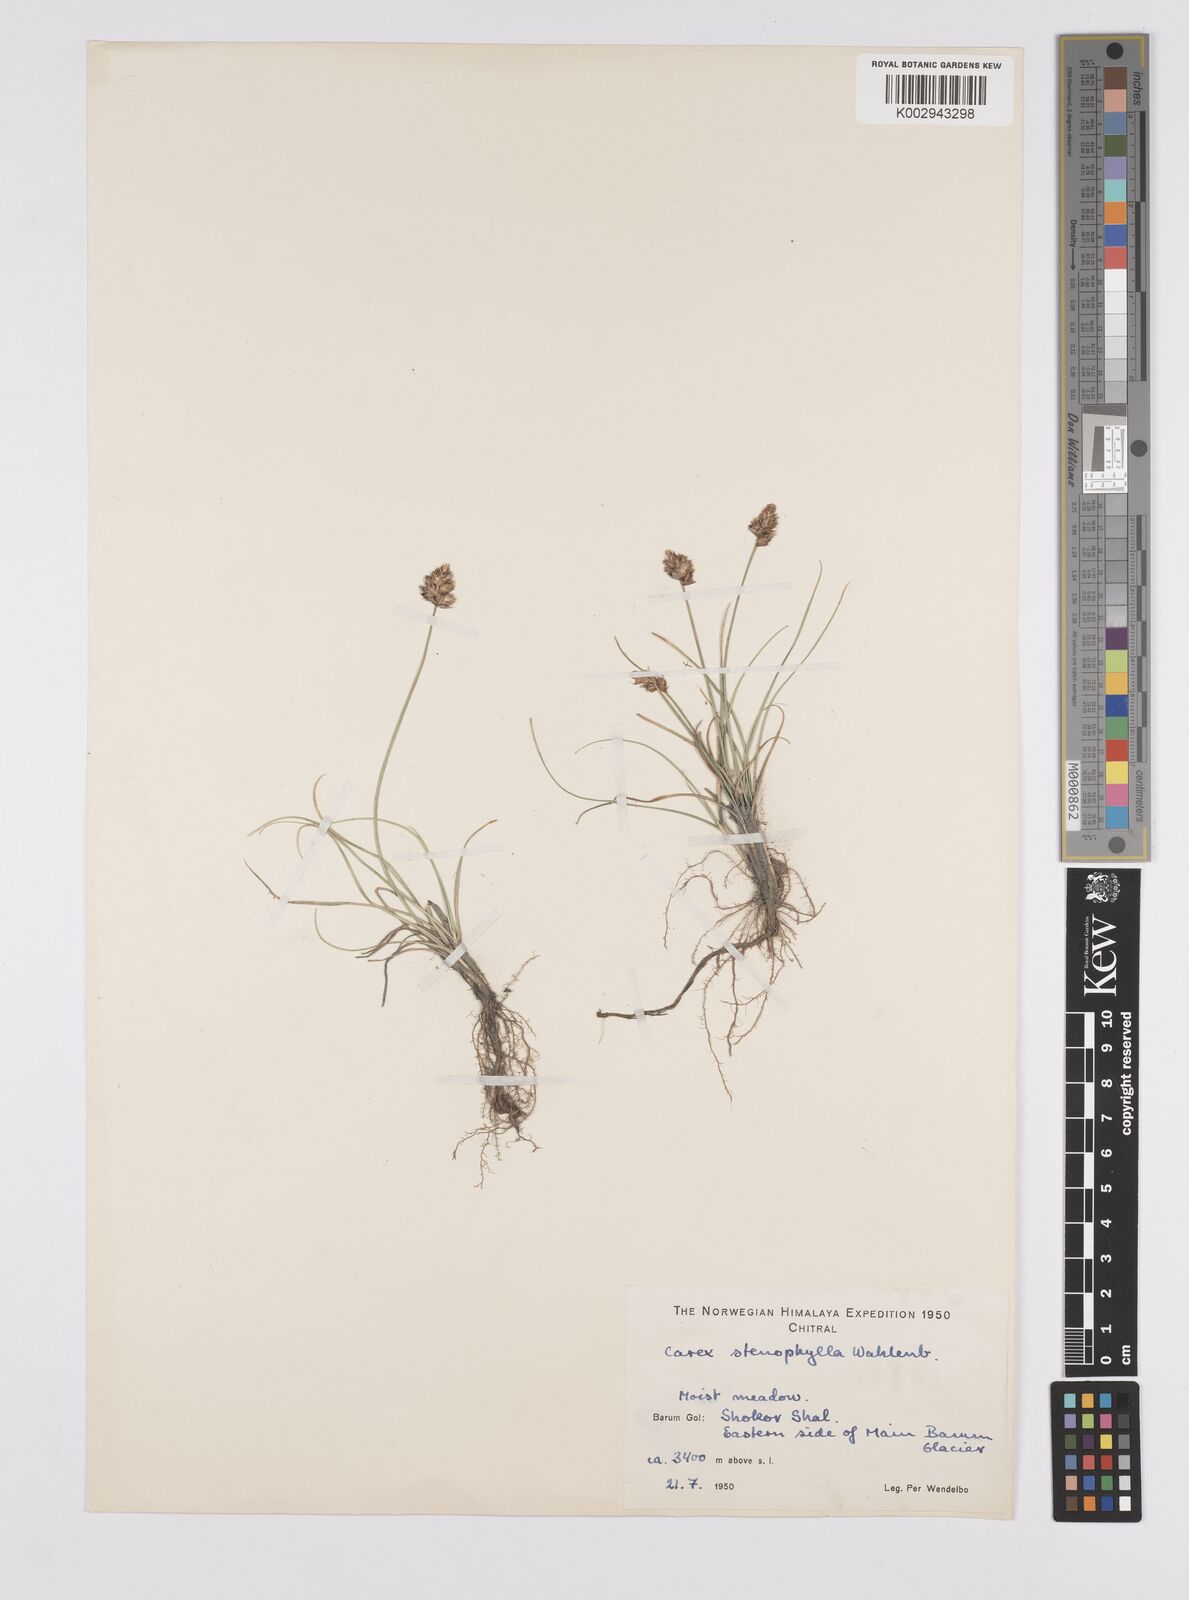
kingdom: Plantae
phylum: Tracheophyta
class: Liliopsida
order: Poales
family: Cyperaceae
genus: Carex
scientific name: Carex stenophylla
